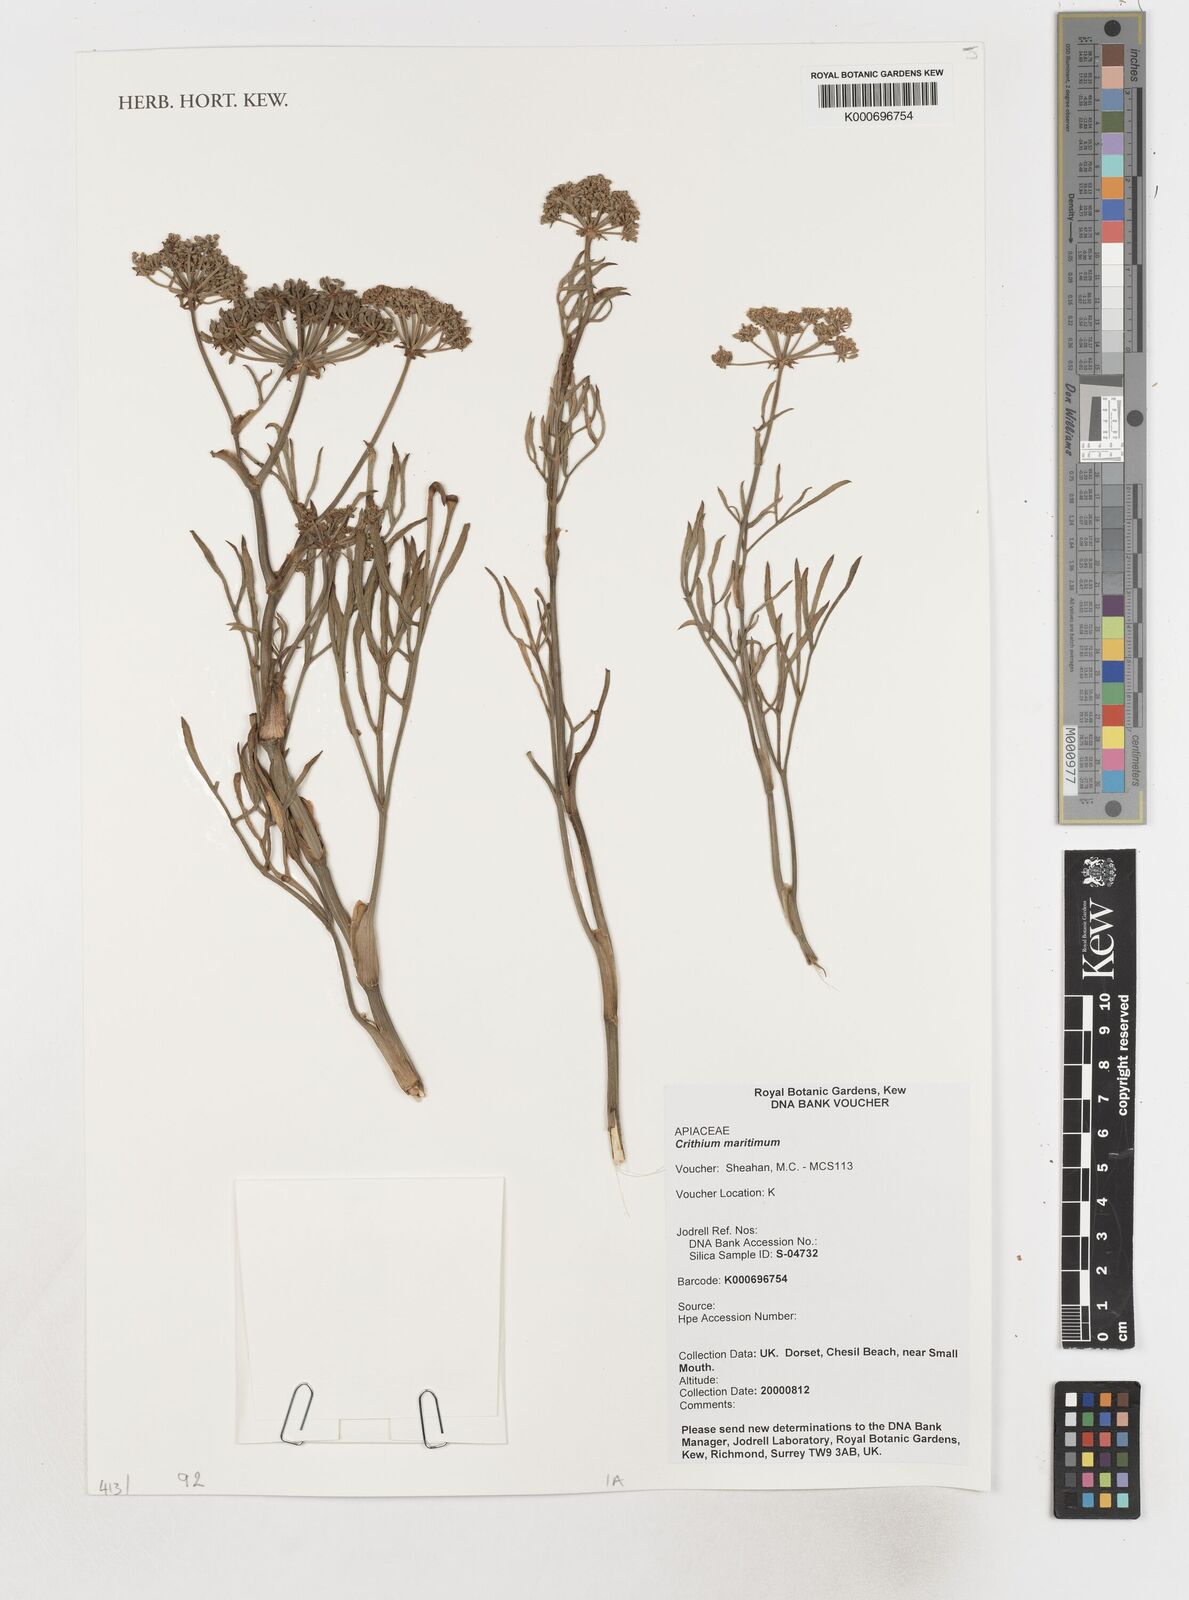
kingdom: Plantae
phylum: Tracheophyta
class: Magnoliopsida
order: Apiales
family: Apiaceae
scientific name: Apiaceae
